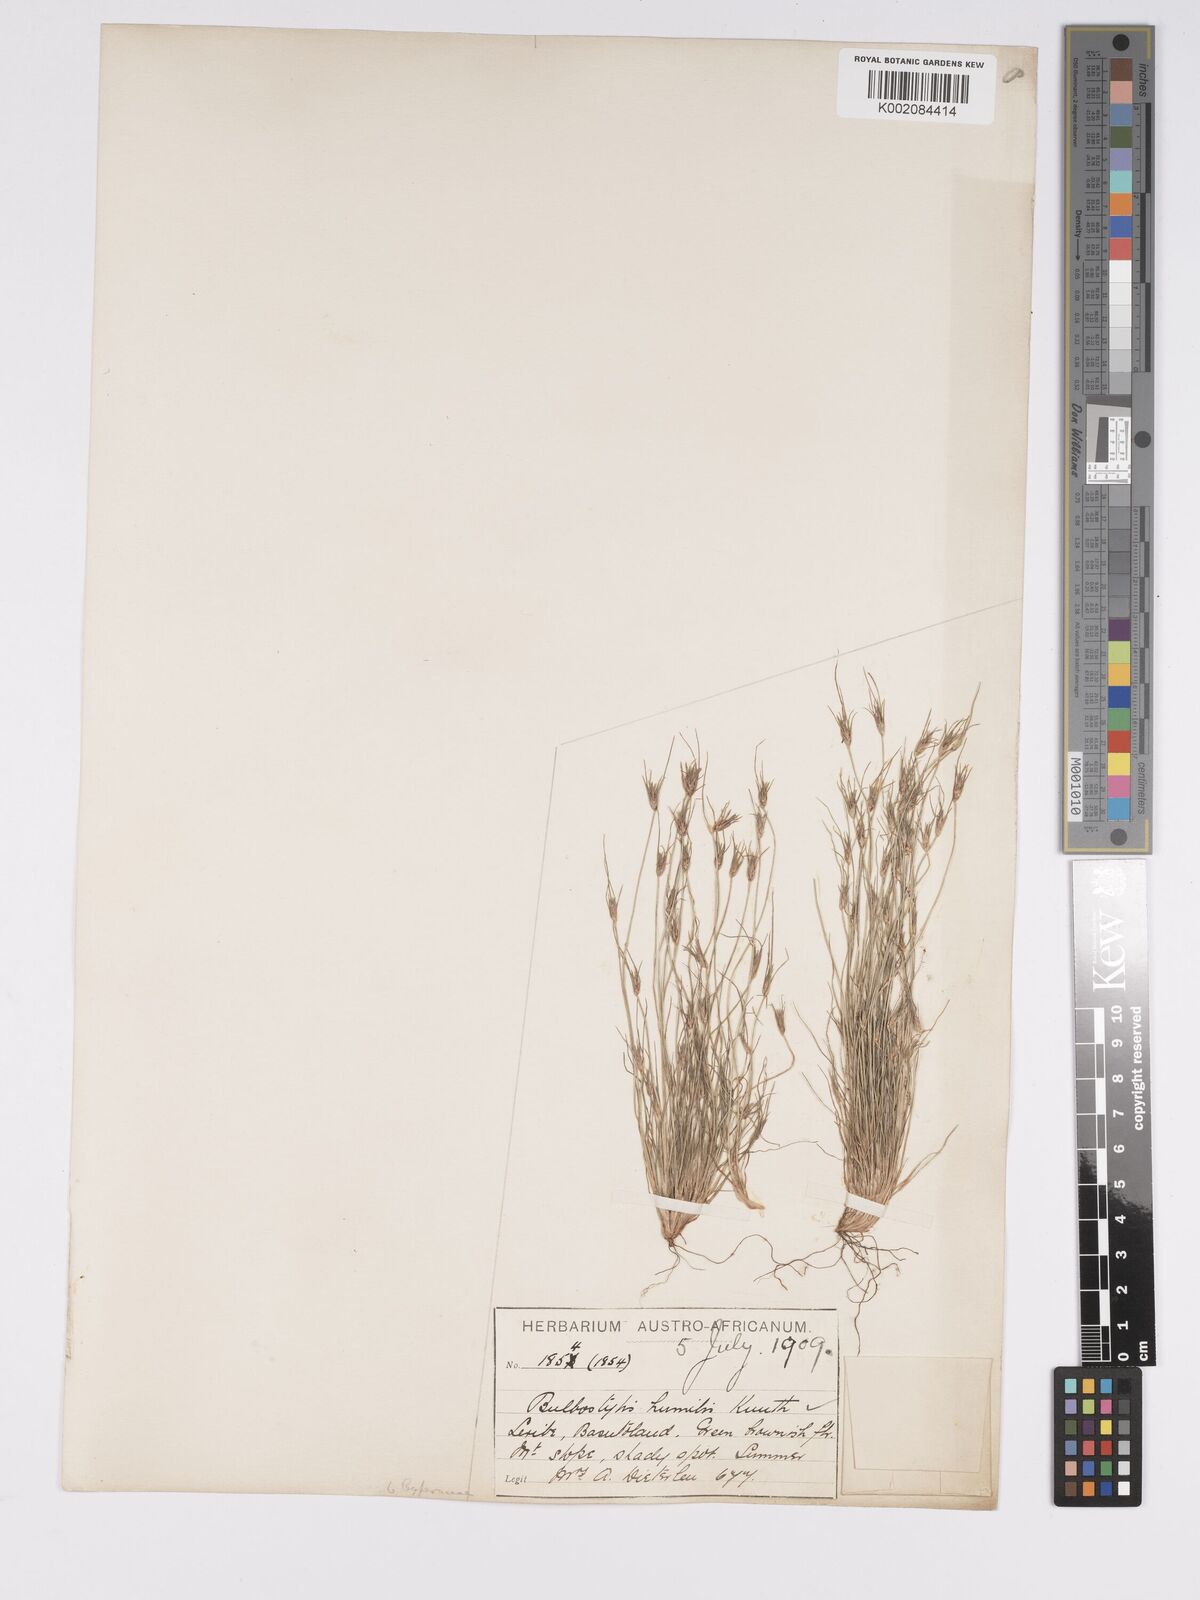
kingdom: Plantae
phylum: Tracheophyta
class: Liliopsida
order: Poales
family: Cyperaceae
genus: Bulbostylis
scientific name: Bulbostylis humilis
